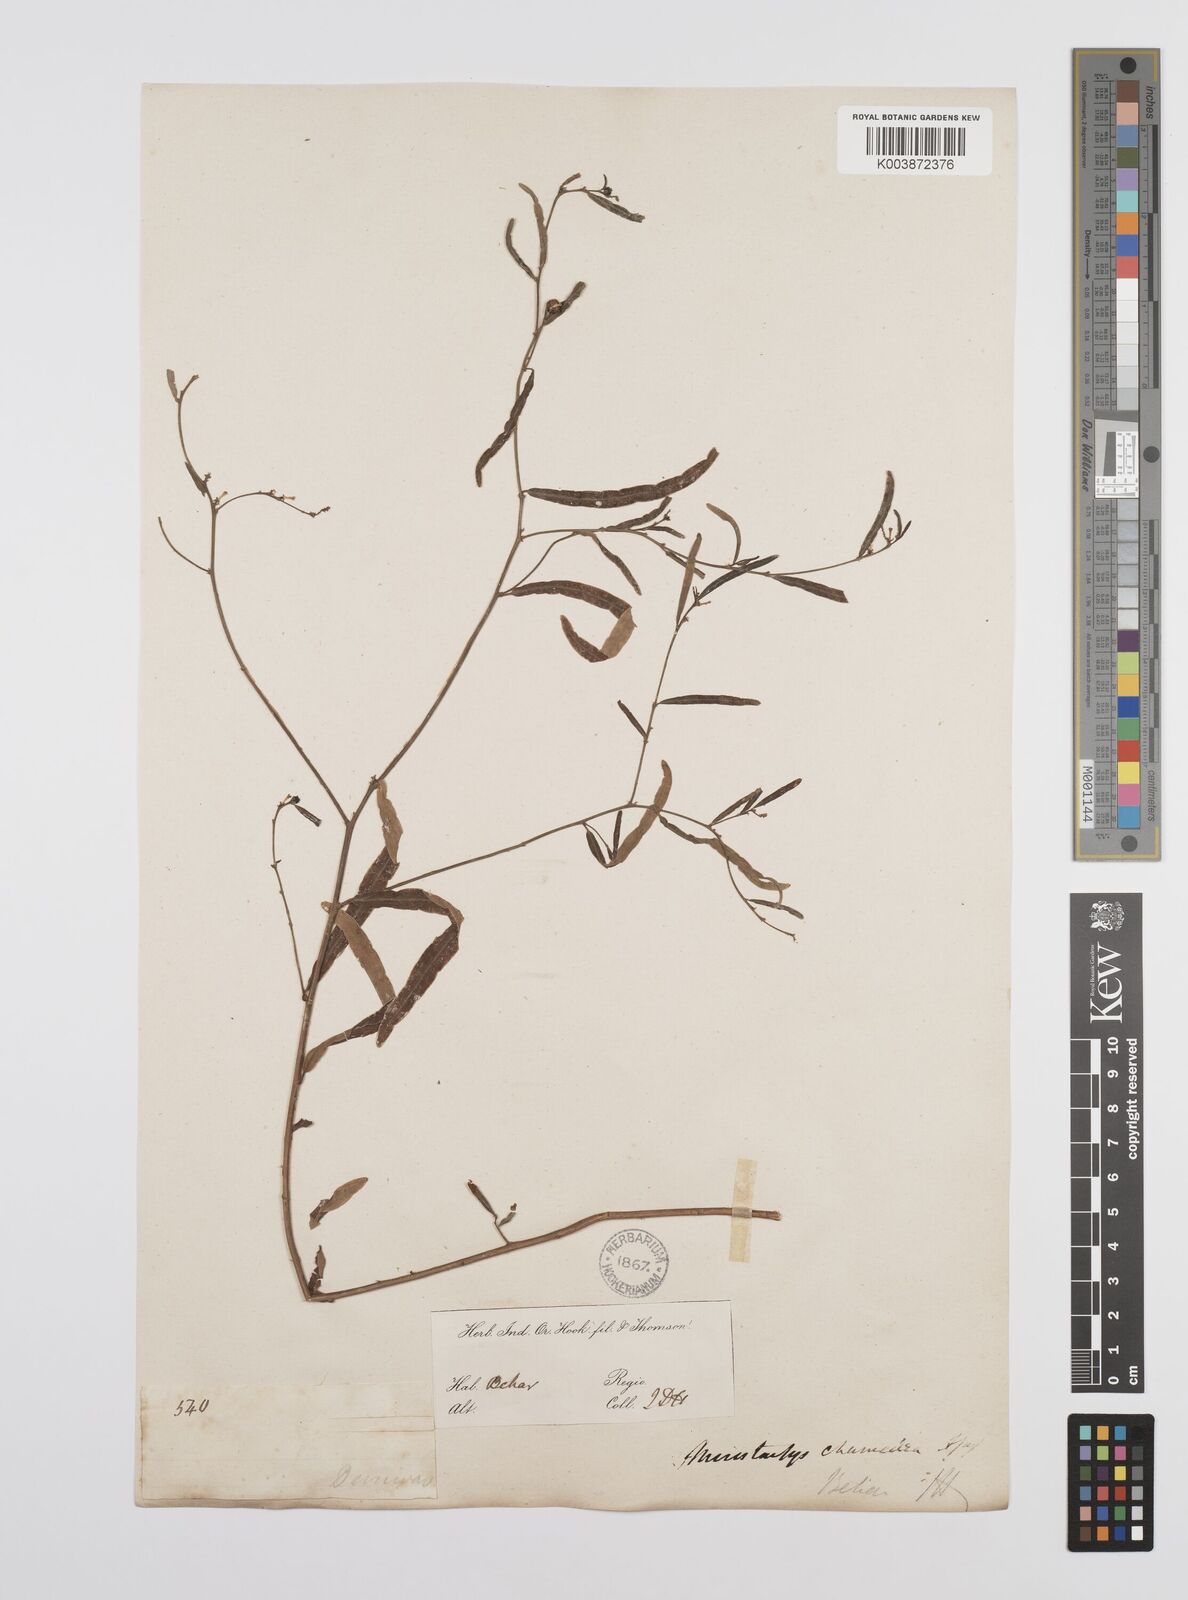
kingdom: Plantae
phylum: Tracheophyta
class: Magnoliopsida
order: Malpighiales
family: Euphorbiaceae
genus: Microstachys
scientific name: Microstachys chamaelea
